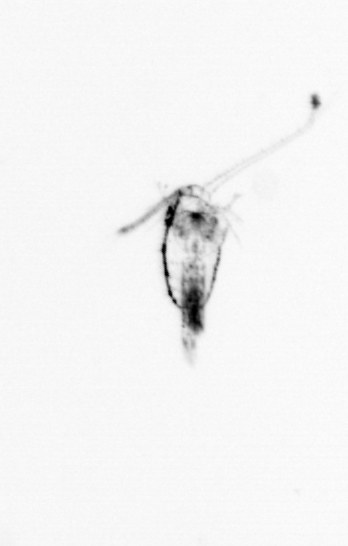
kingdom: Animalia
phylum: Arthropoda
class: Copepoda
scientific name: Copepoda
